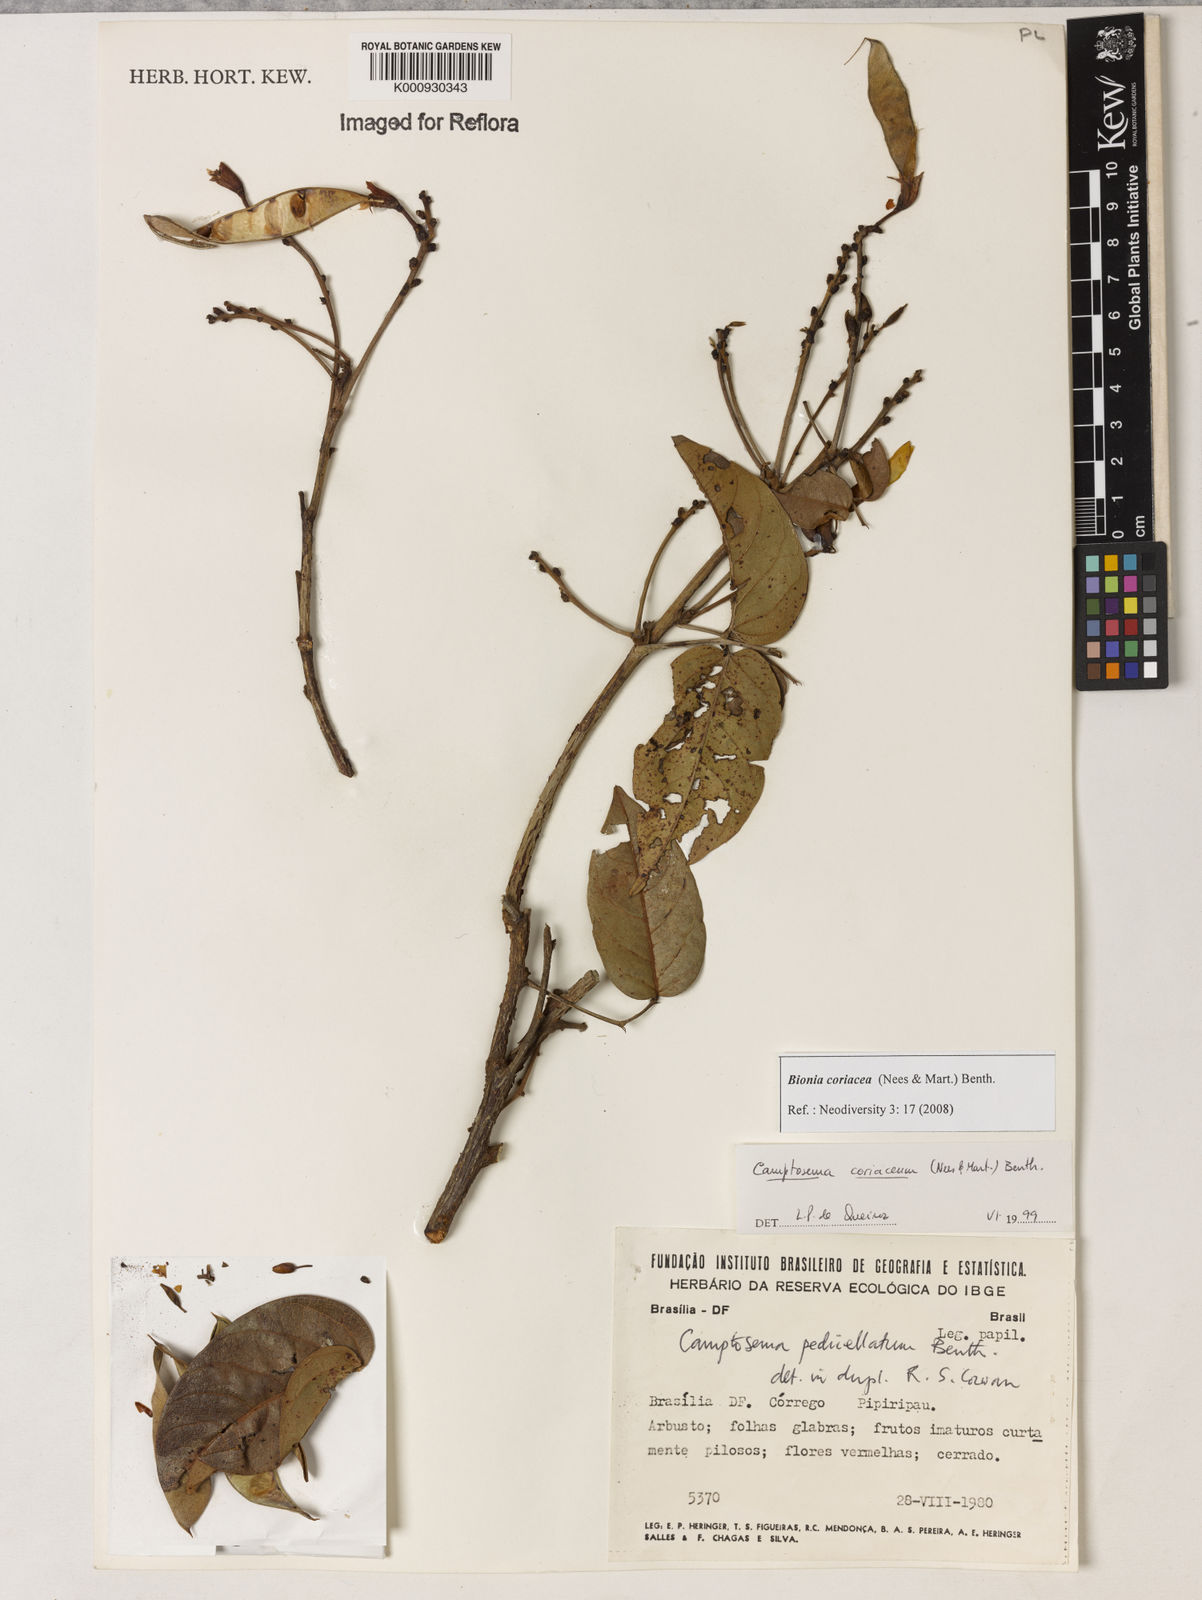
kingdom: Plantae
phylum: Tracheophyta
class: Magnoliopsida
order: Fabales
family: Fabaceae
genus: Camptosema
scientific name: Camptosema coriaceum
